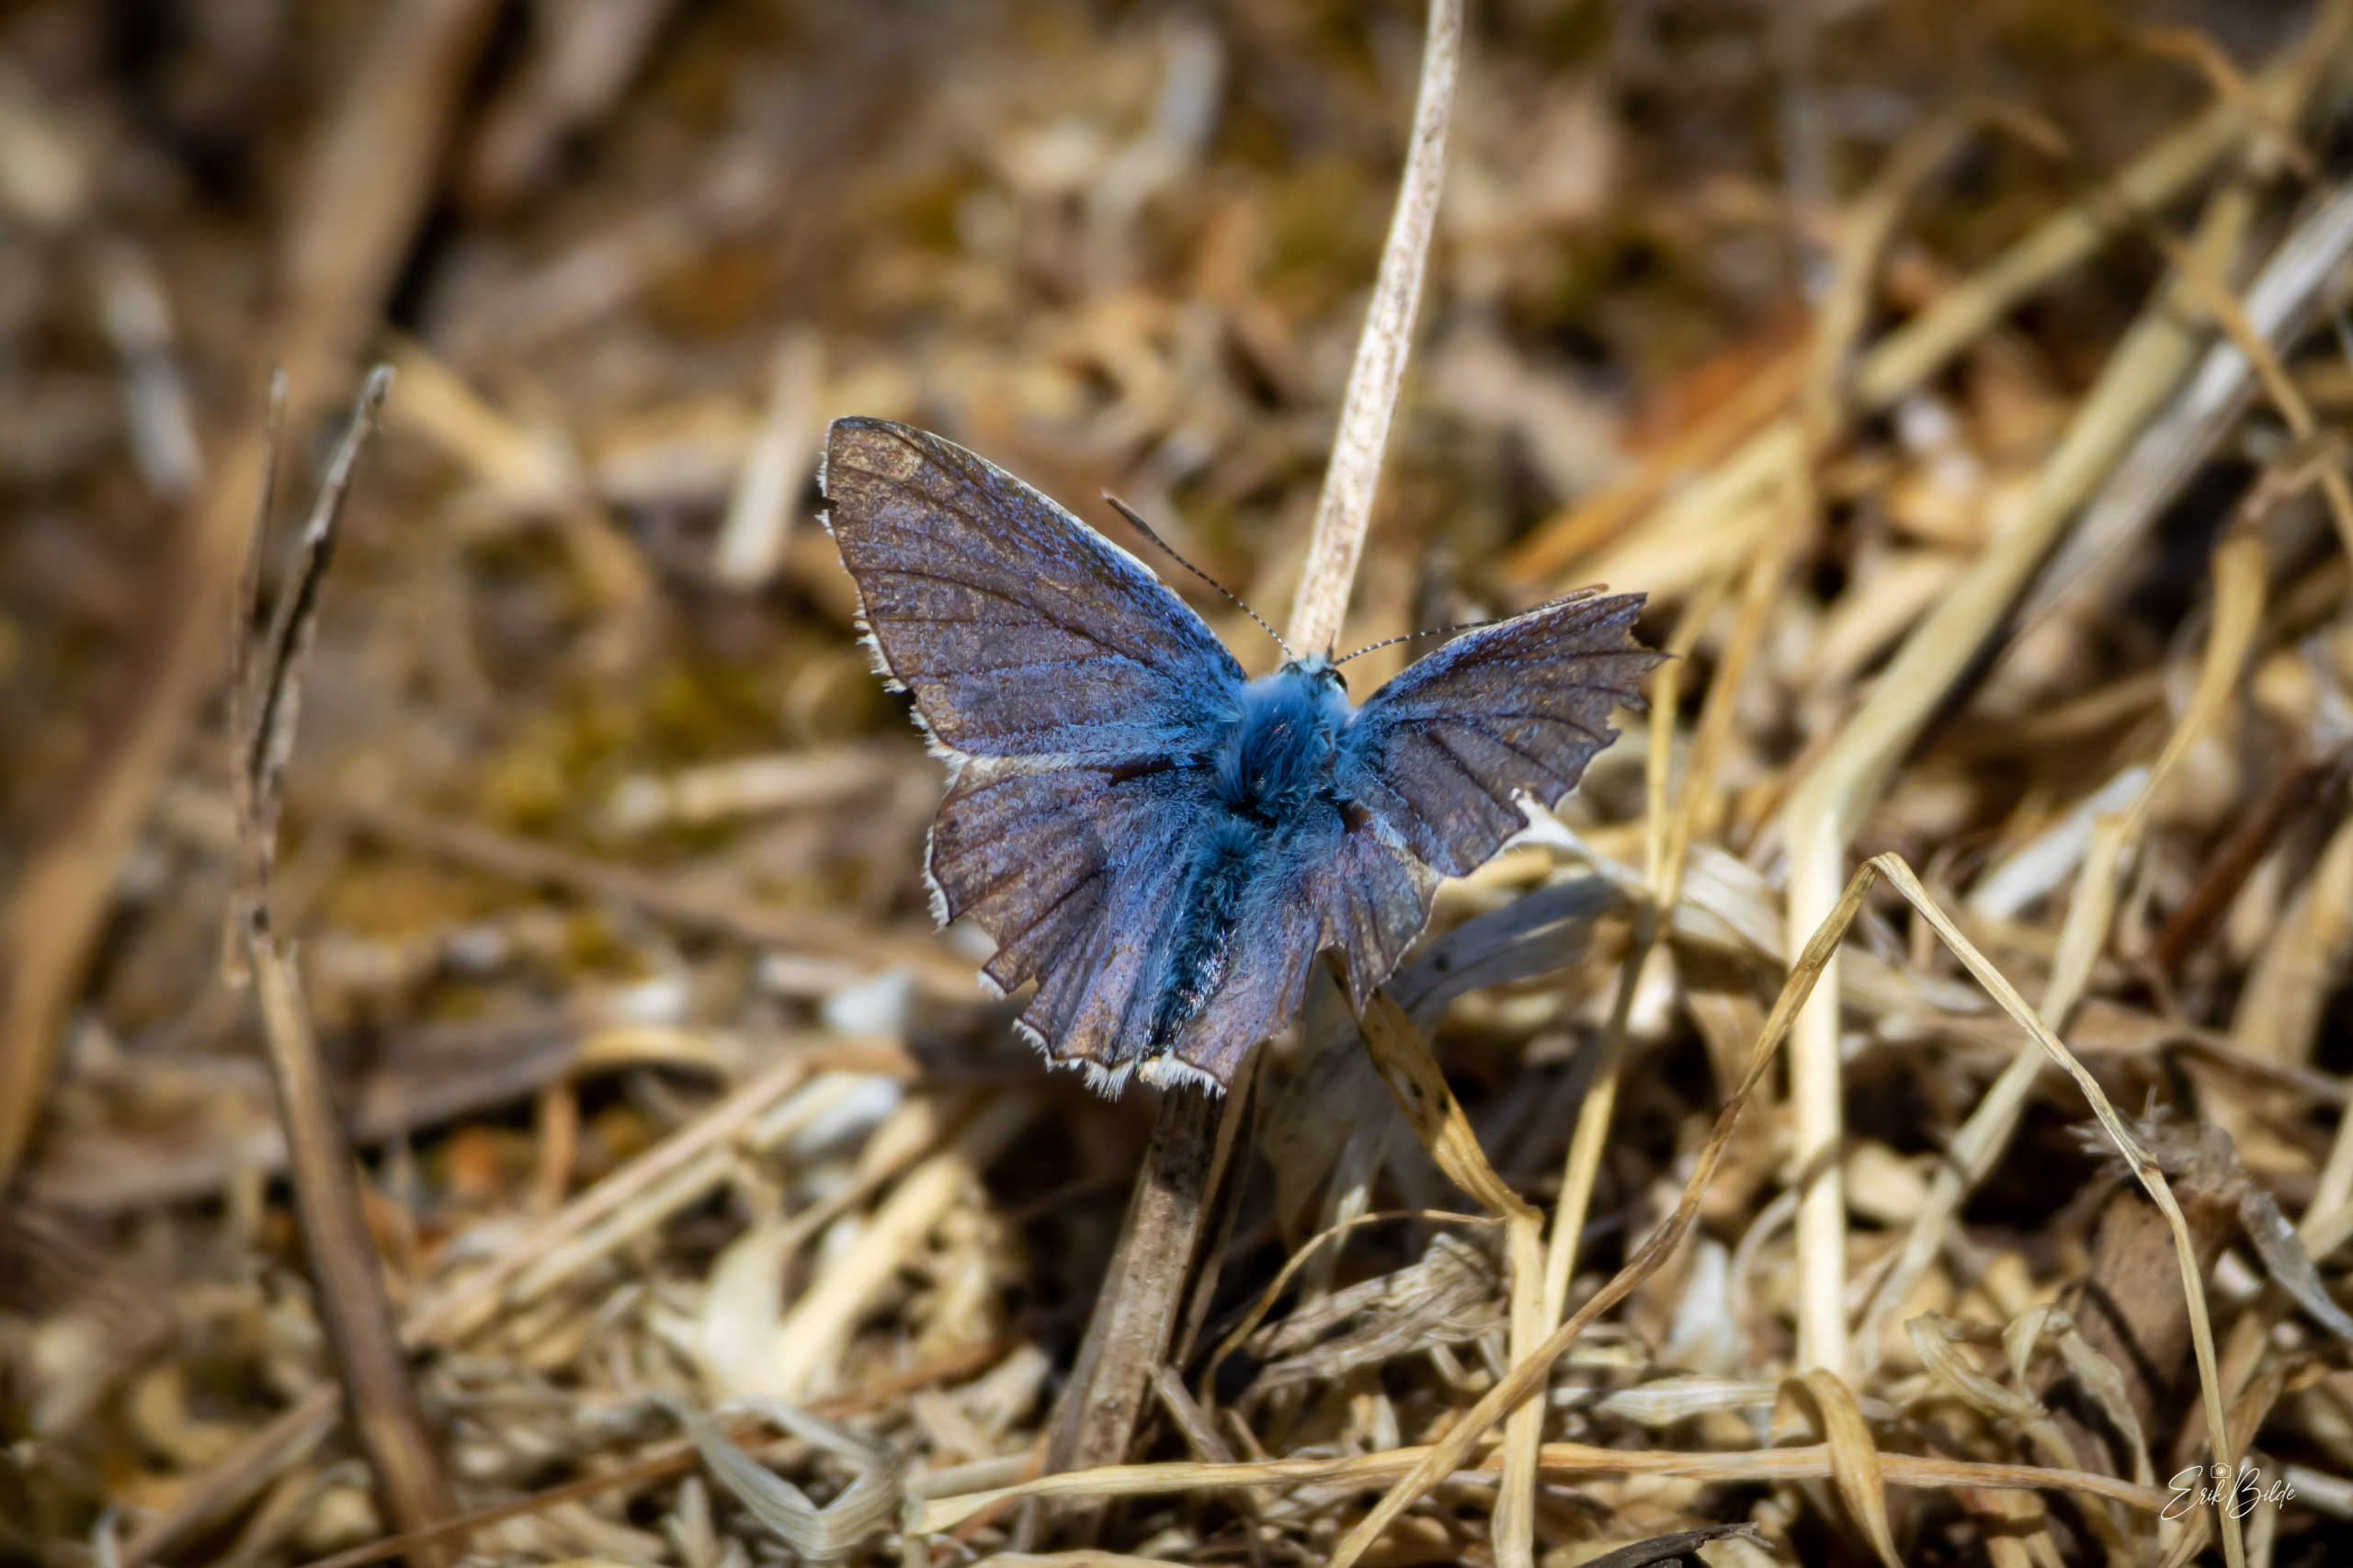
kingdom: Animalia
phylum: Arthropoda
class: Insecta
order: Lepidoptera
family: Lycaenidae
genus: Polyommatus
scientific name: Polyommatus icarus
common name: Almindelig blåfugl
